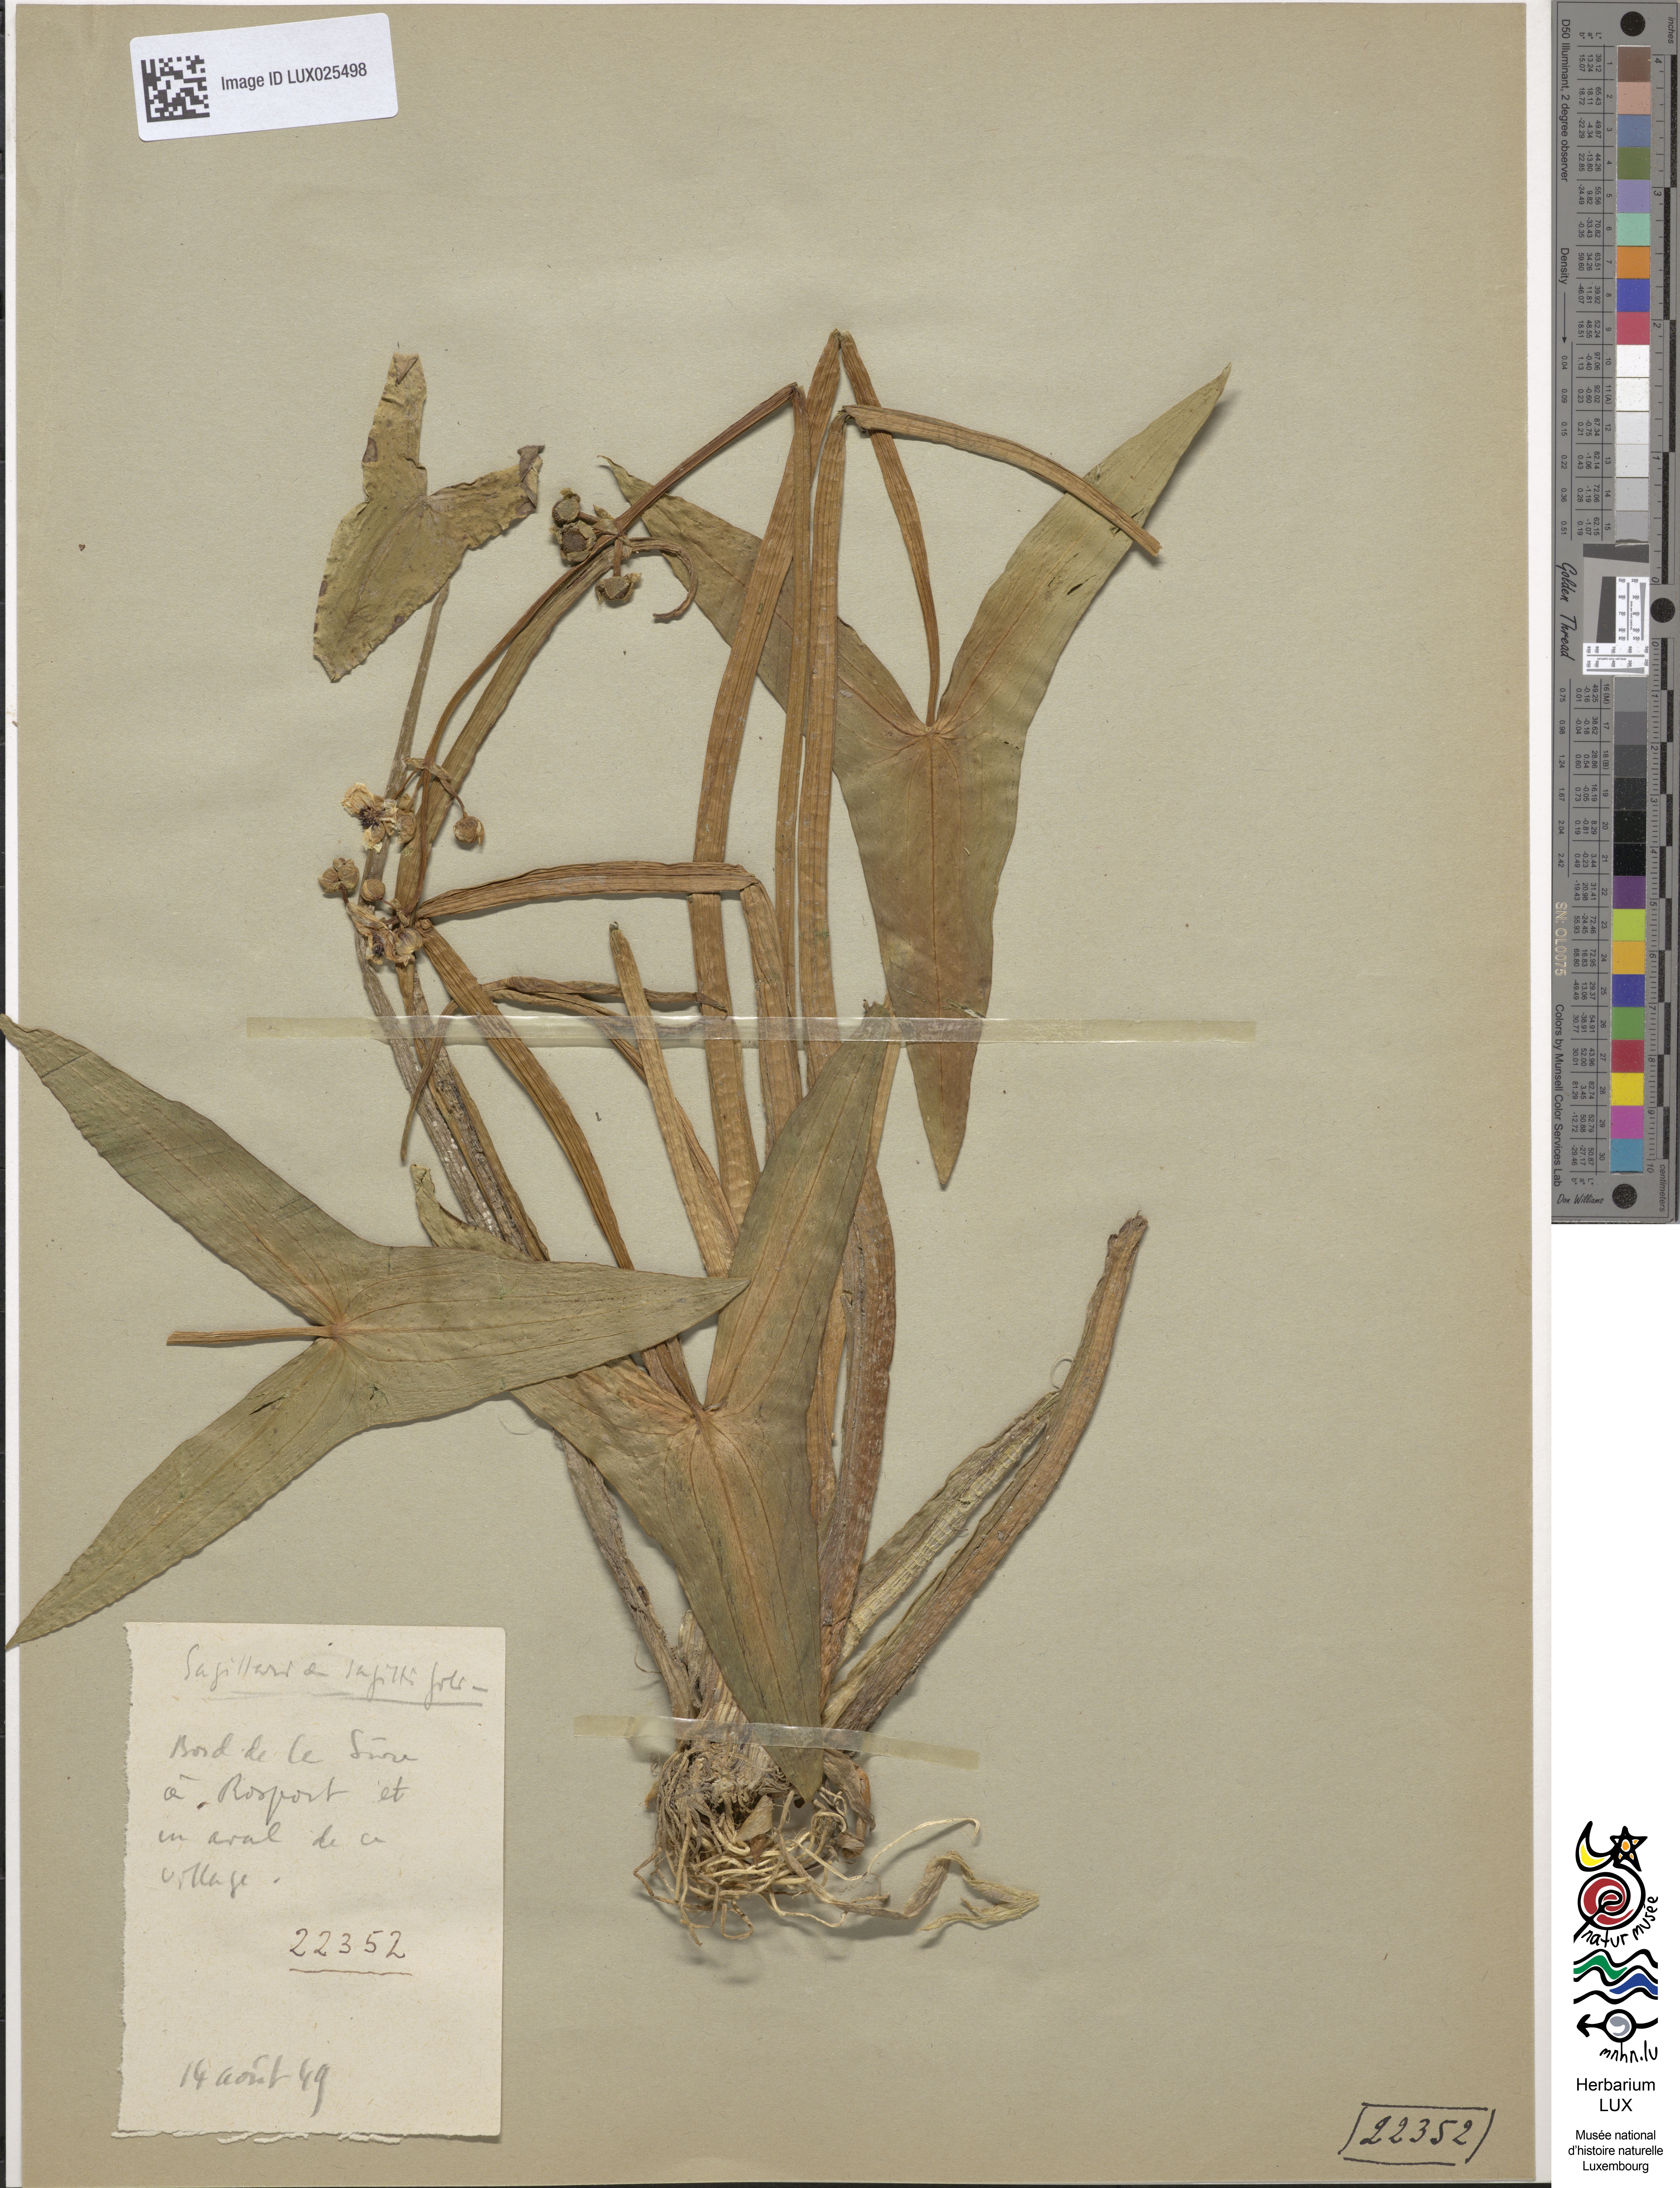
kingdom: Plantae
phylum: Tracheophyta
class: Liliopsida
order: Alismatales
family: Alismataceae
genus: Sagittaria
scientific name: Sagittaria sagittifolia
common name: Arrowhead
